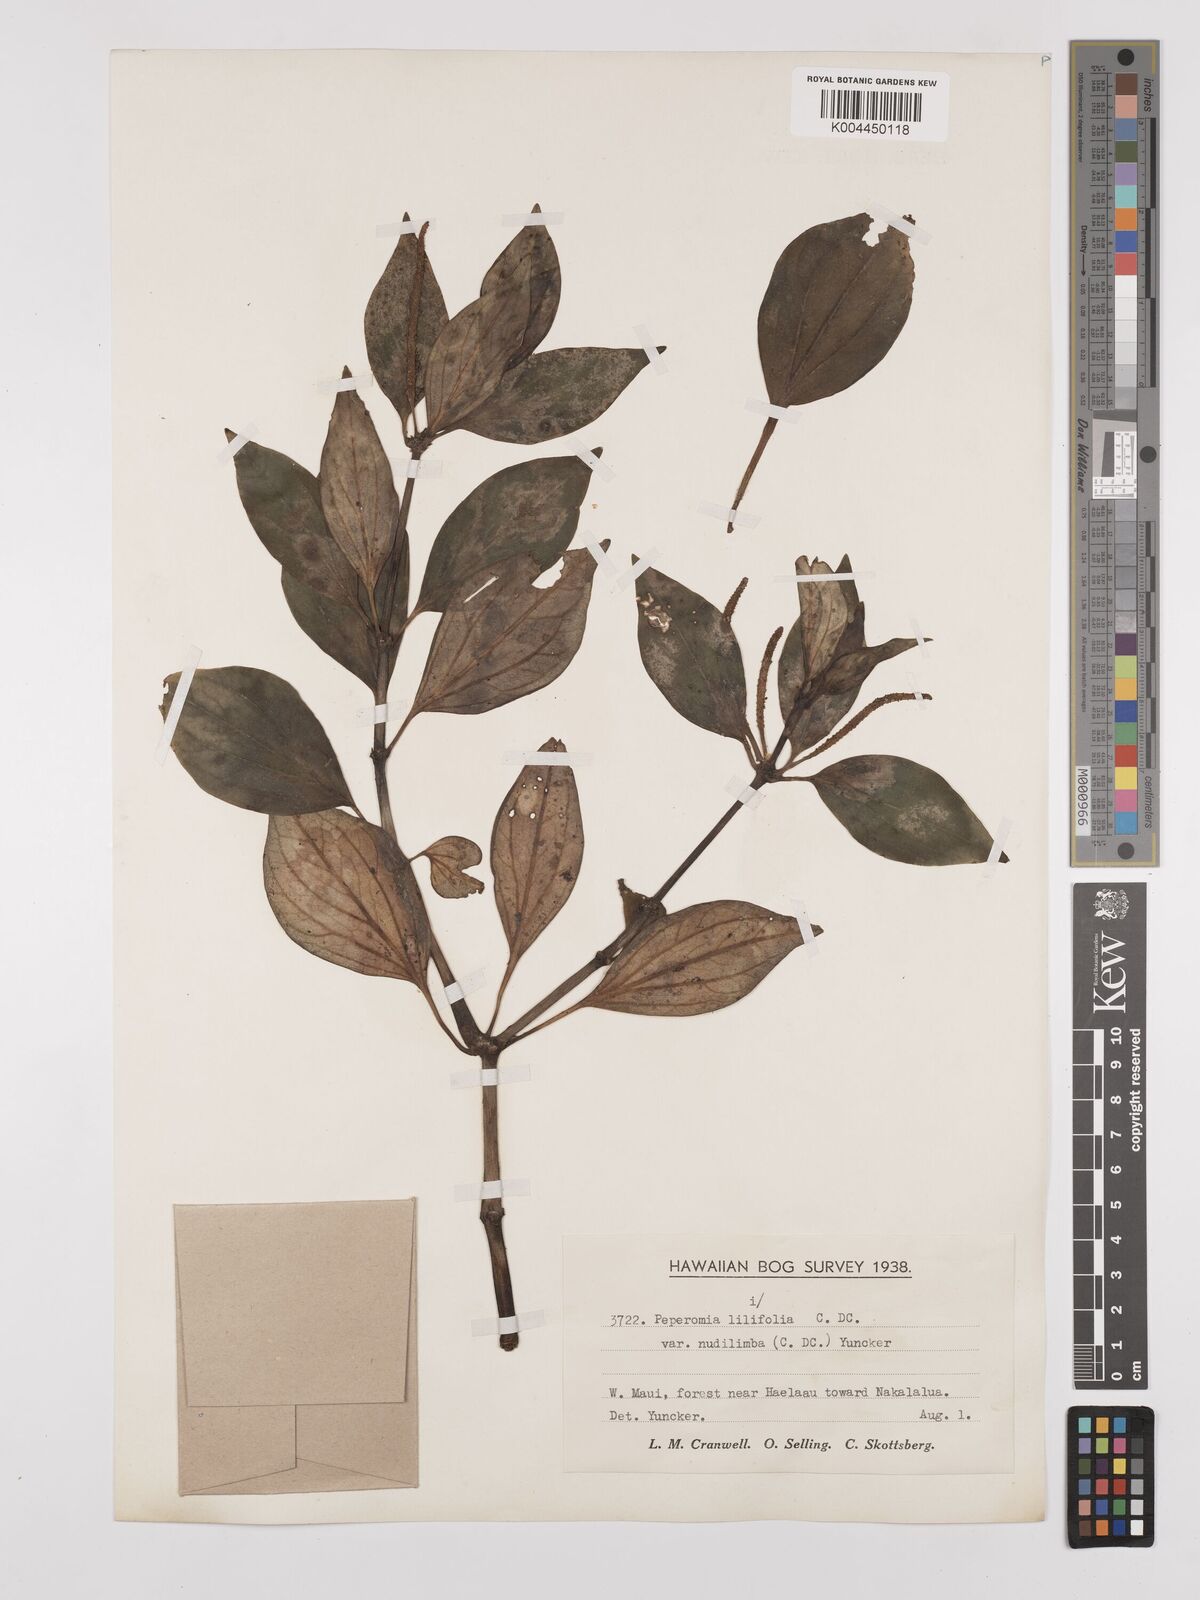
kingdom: Plantae
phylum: Tracheophyta
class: Magnoliopsida
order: Piperales
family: Piperaceae
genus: Peperomia
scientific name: Peperomia macraeana
